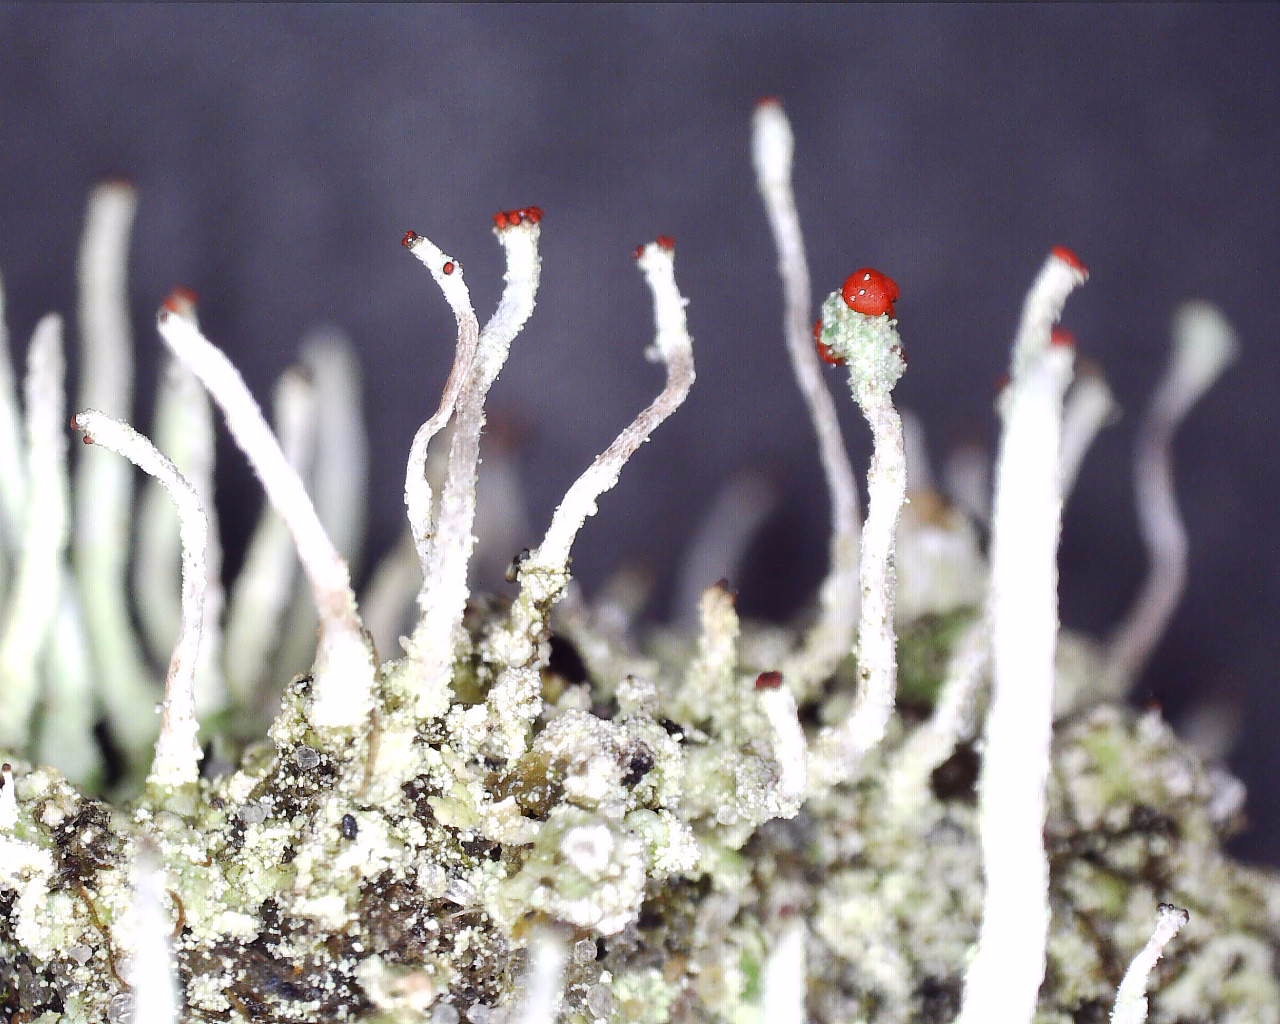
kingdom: Fungi
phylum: Ascomycota
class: Lecanoromycetes
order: Lecanorales
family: Cladoniaceae
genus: Cladonia
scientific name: Cladonia macilenta
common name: indsvunden bægerlav
